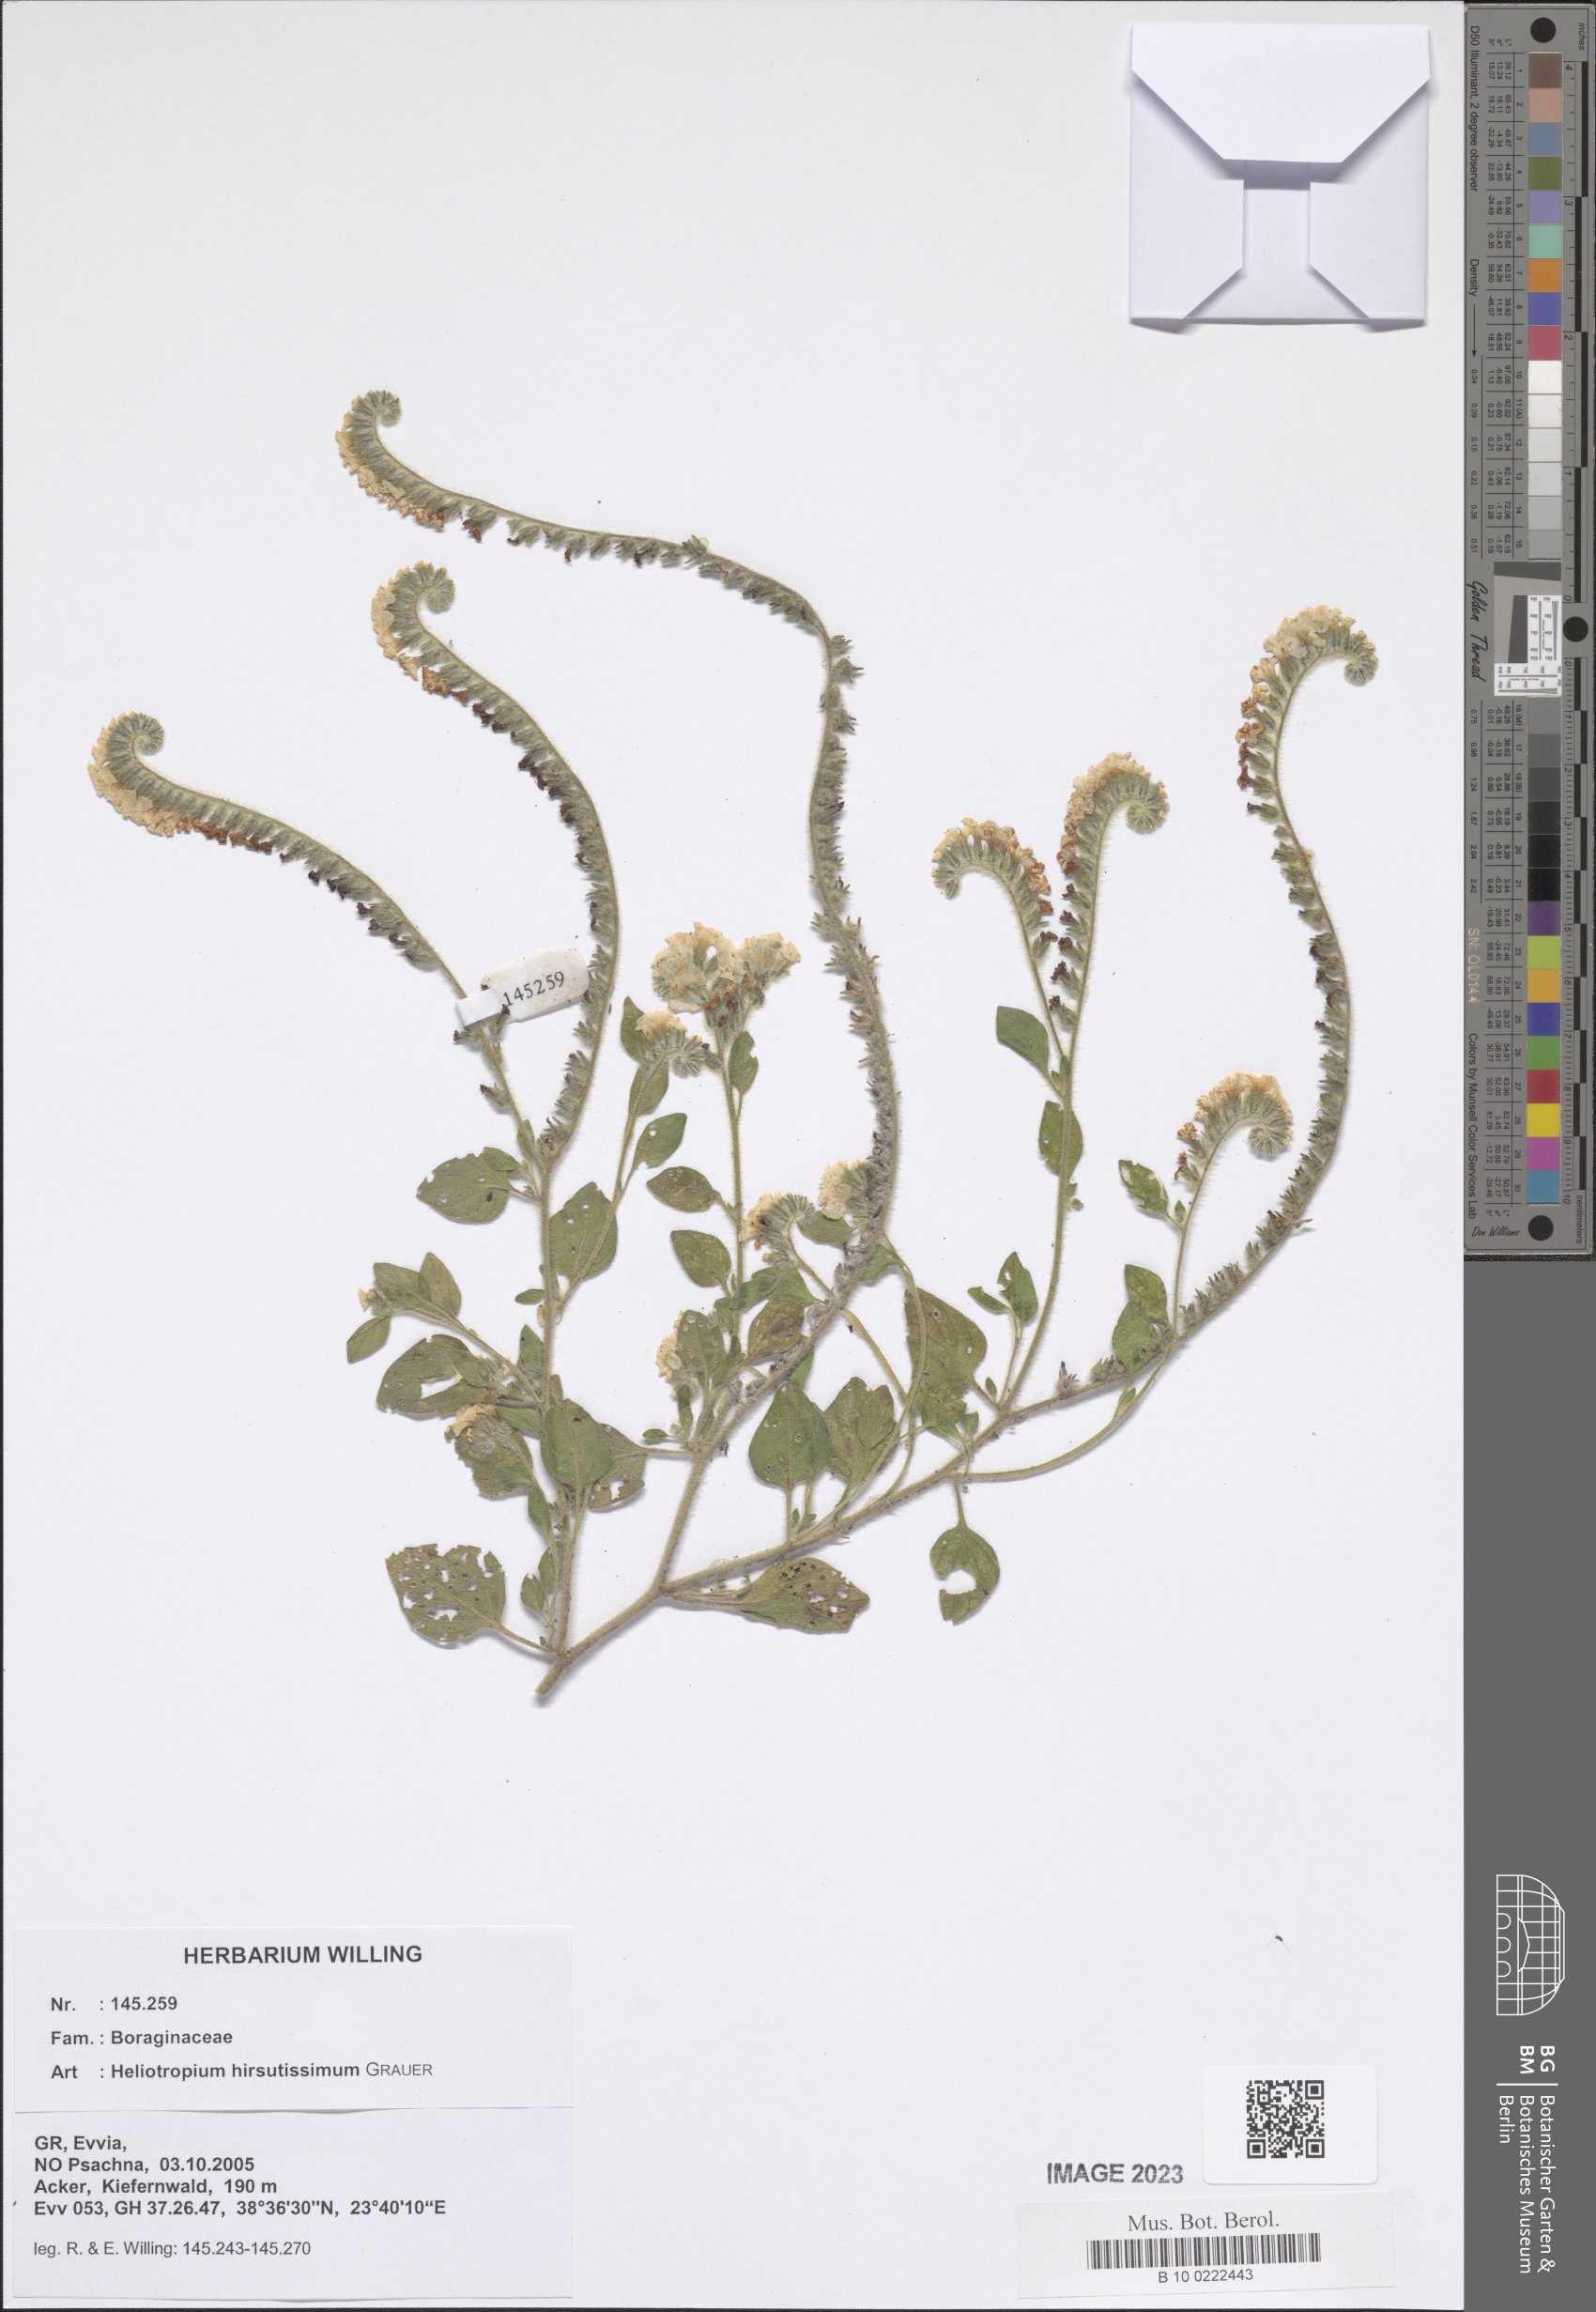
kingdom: Plantae
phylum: Tracheophyta
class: Magnoliopsida
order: Boraginales
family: Heliotropiaceae
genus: Heliotropium
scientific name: Heliotropium hirsutissimum
